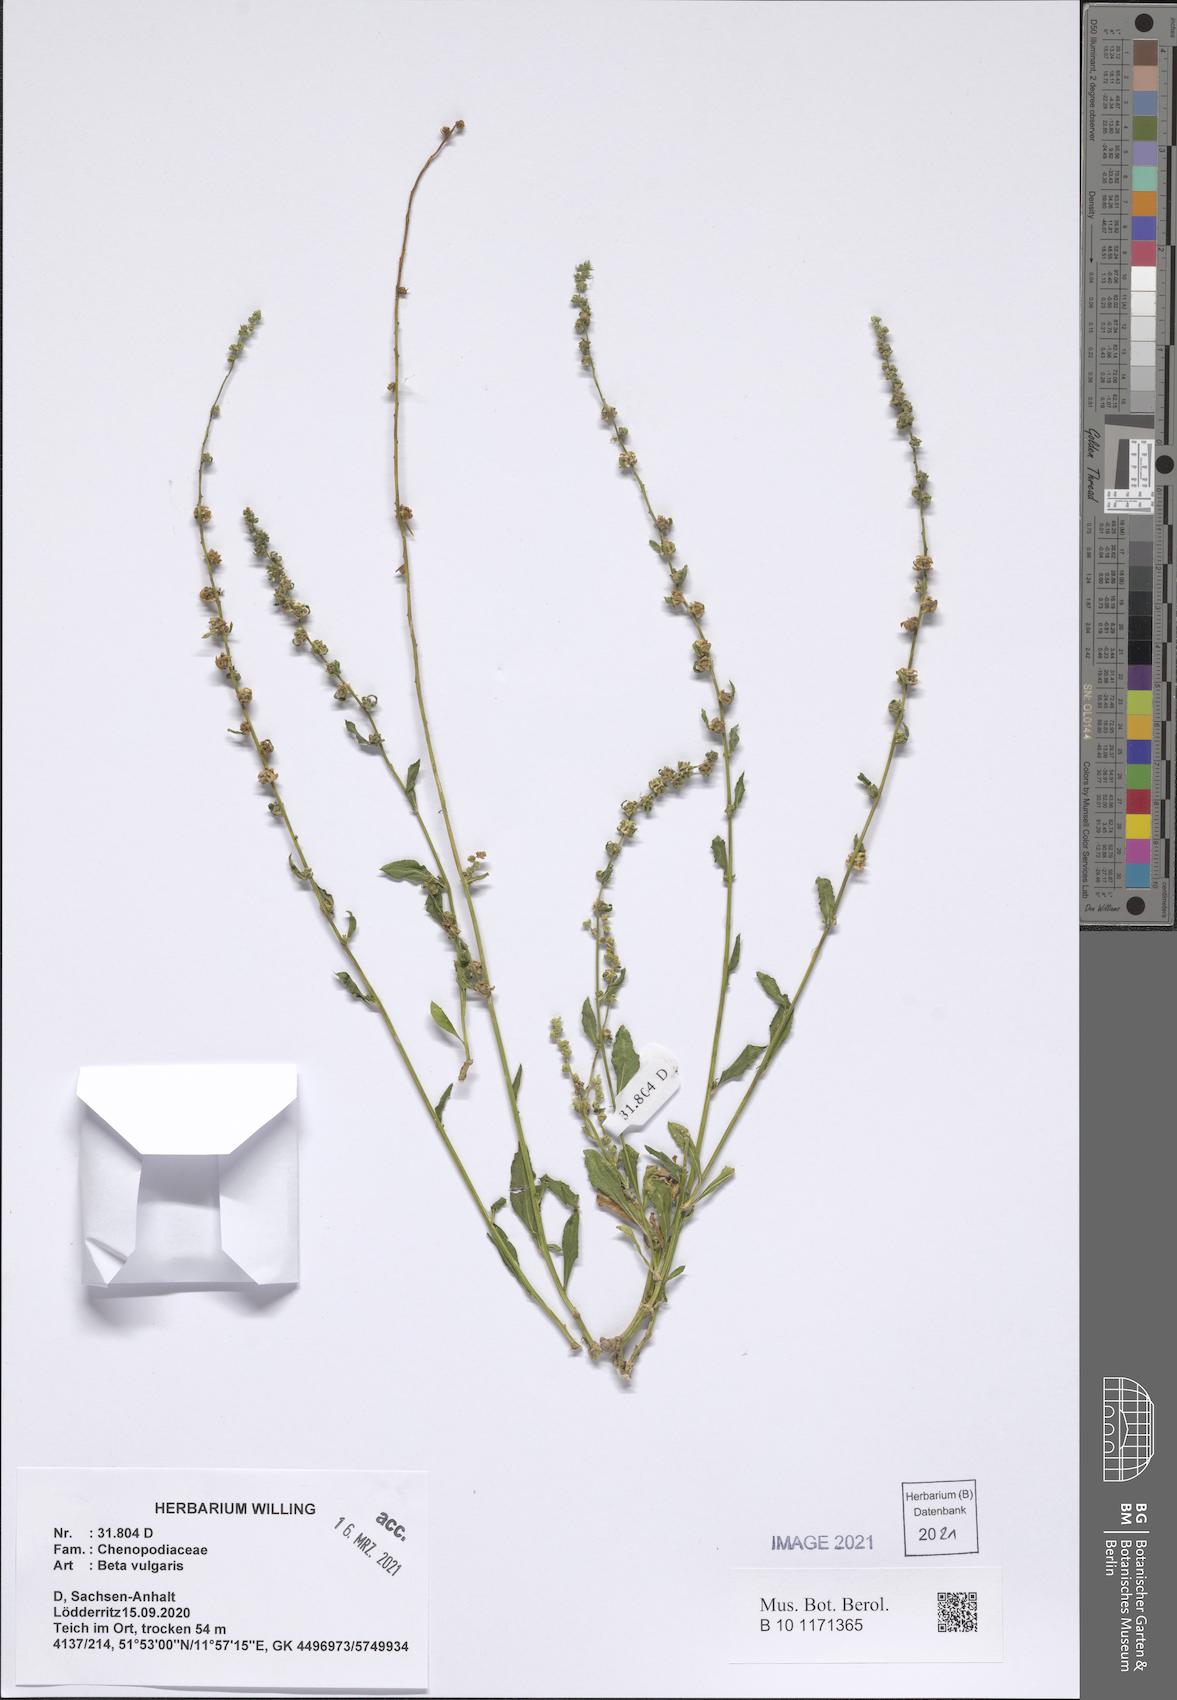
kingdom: Plantae
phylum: Tracheophyta
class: Magnoliopsida
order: Caryophyllales
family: Amaranthaceae
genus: Beta
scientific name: Beta vulgaris
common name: Beet
